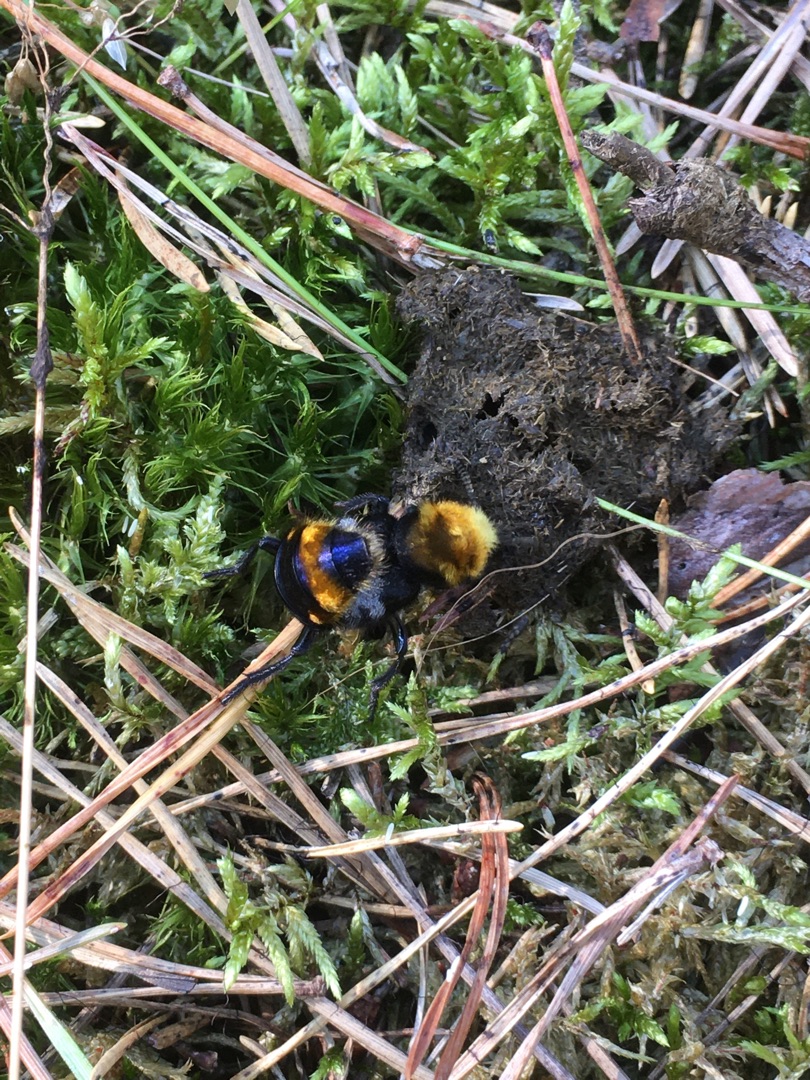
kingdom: Animalia
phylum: Arthropoda
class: Insecta
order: Coleoptera
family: Staphylinidae
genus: Emus
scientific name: Emus hirtus
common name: Humlerovbille
